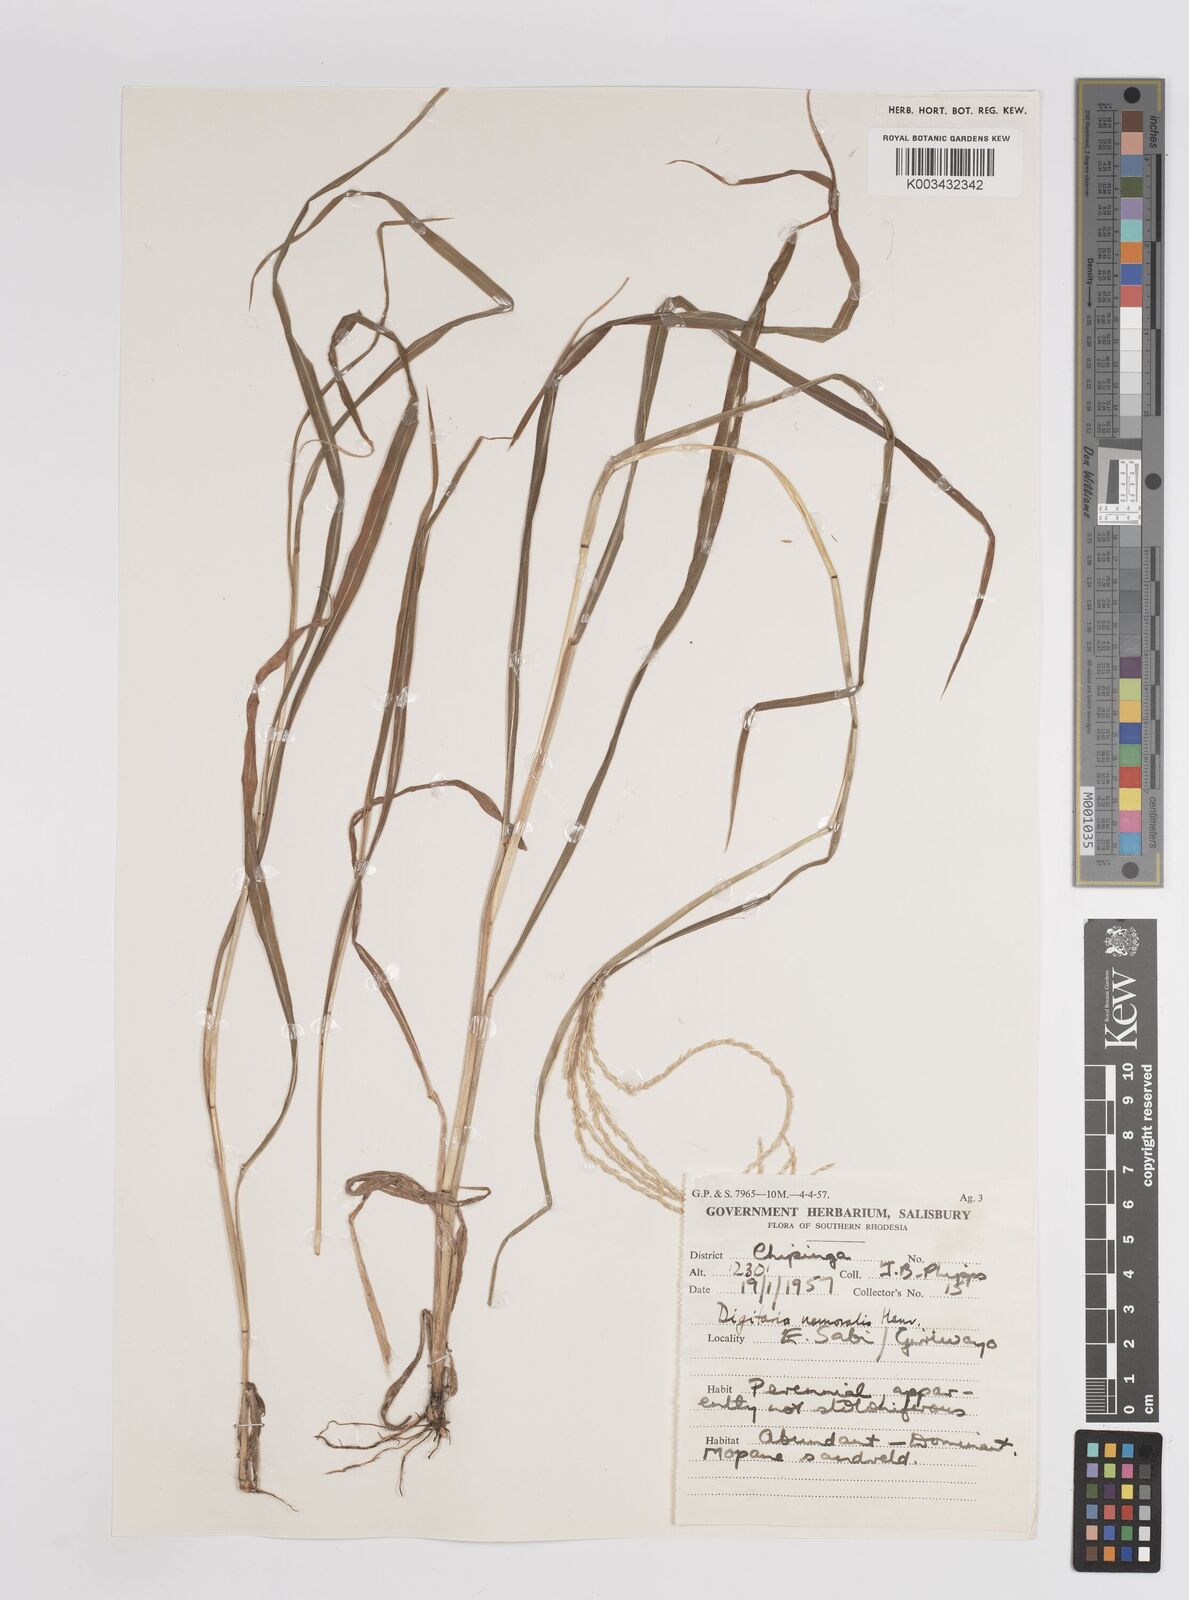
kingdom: Plantae
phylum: Tracheophyta
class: Liliopsida
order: Poales
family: Poaceae
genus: Digitaria
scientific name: Digitaria eriantha
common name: Digitgrass
